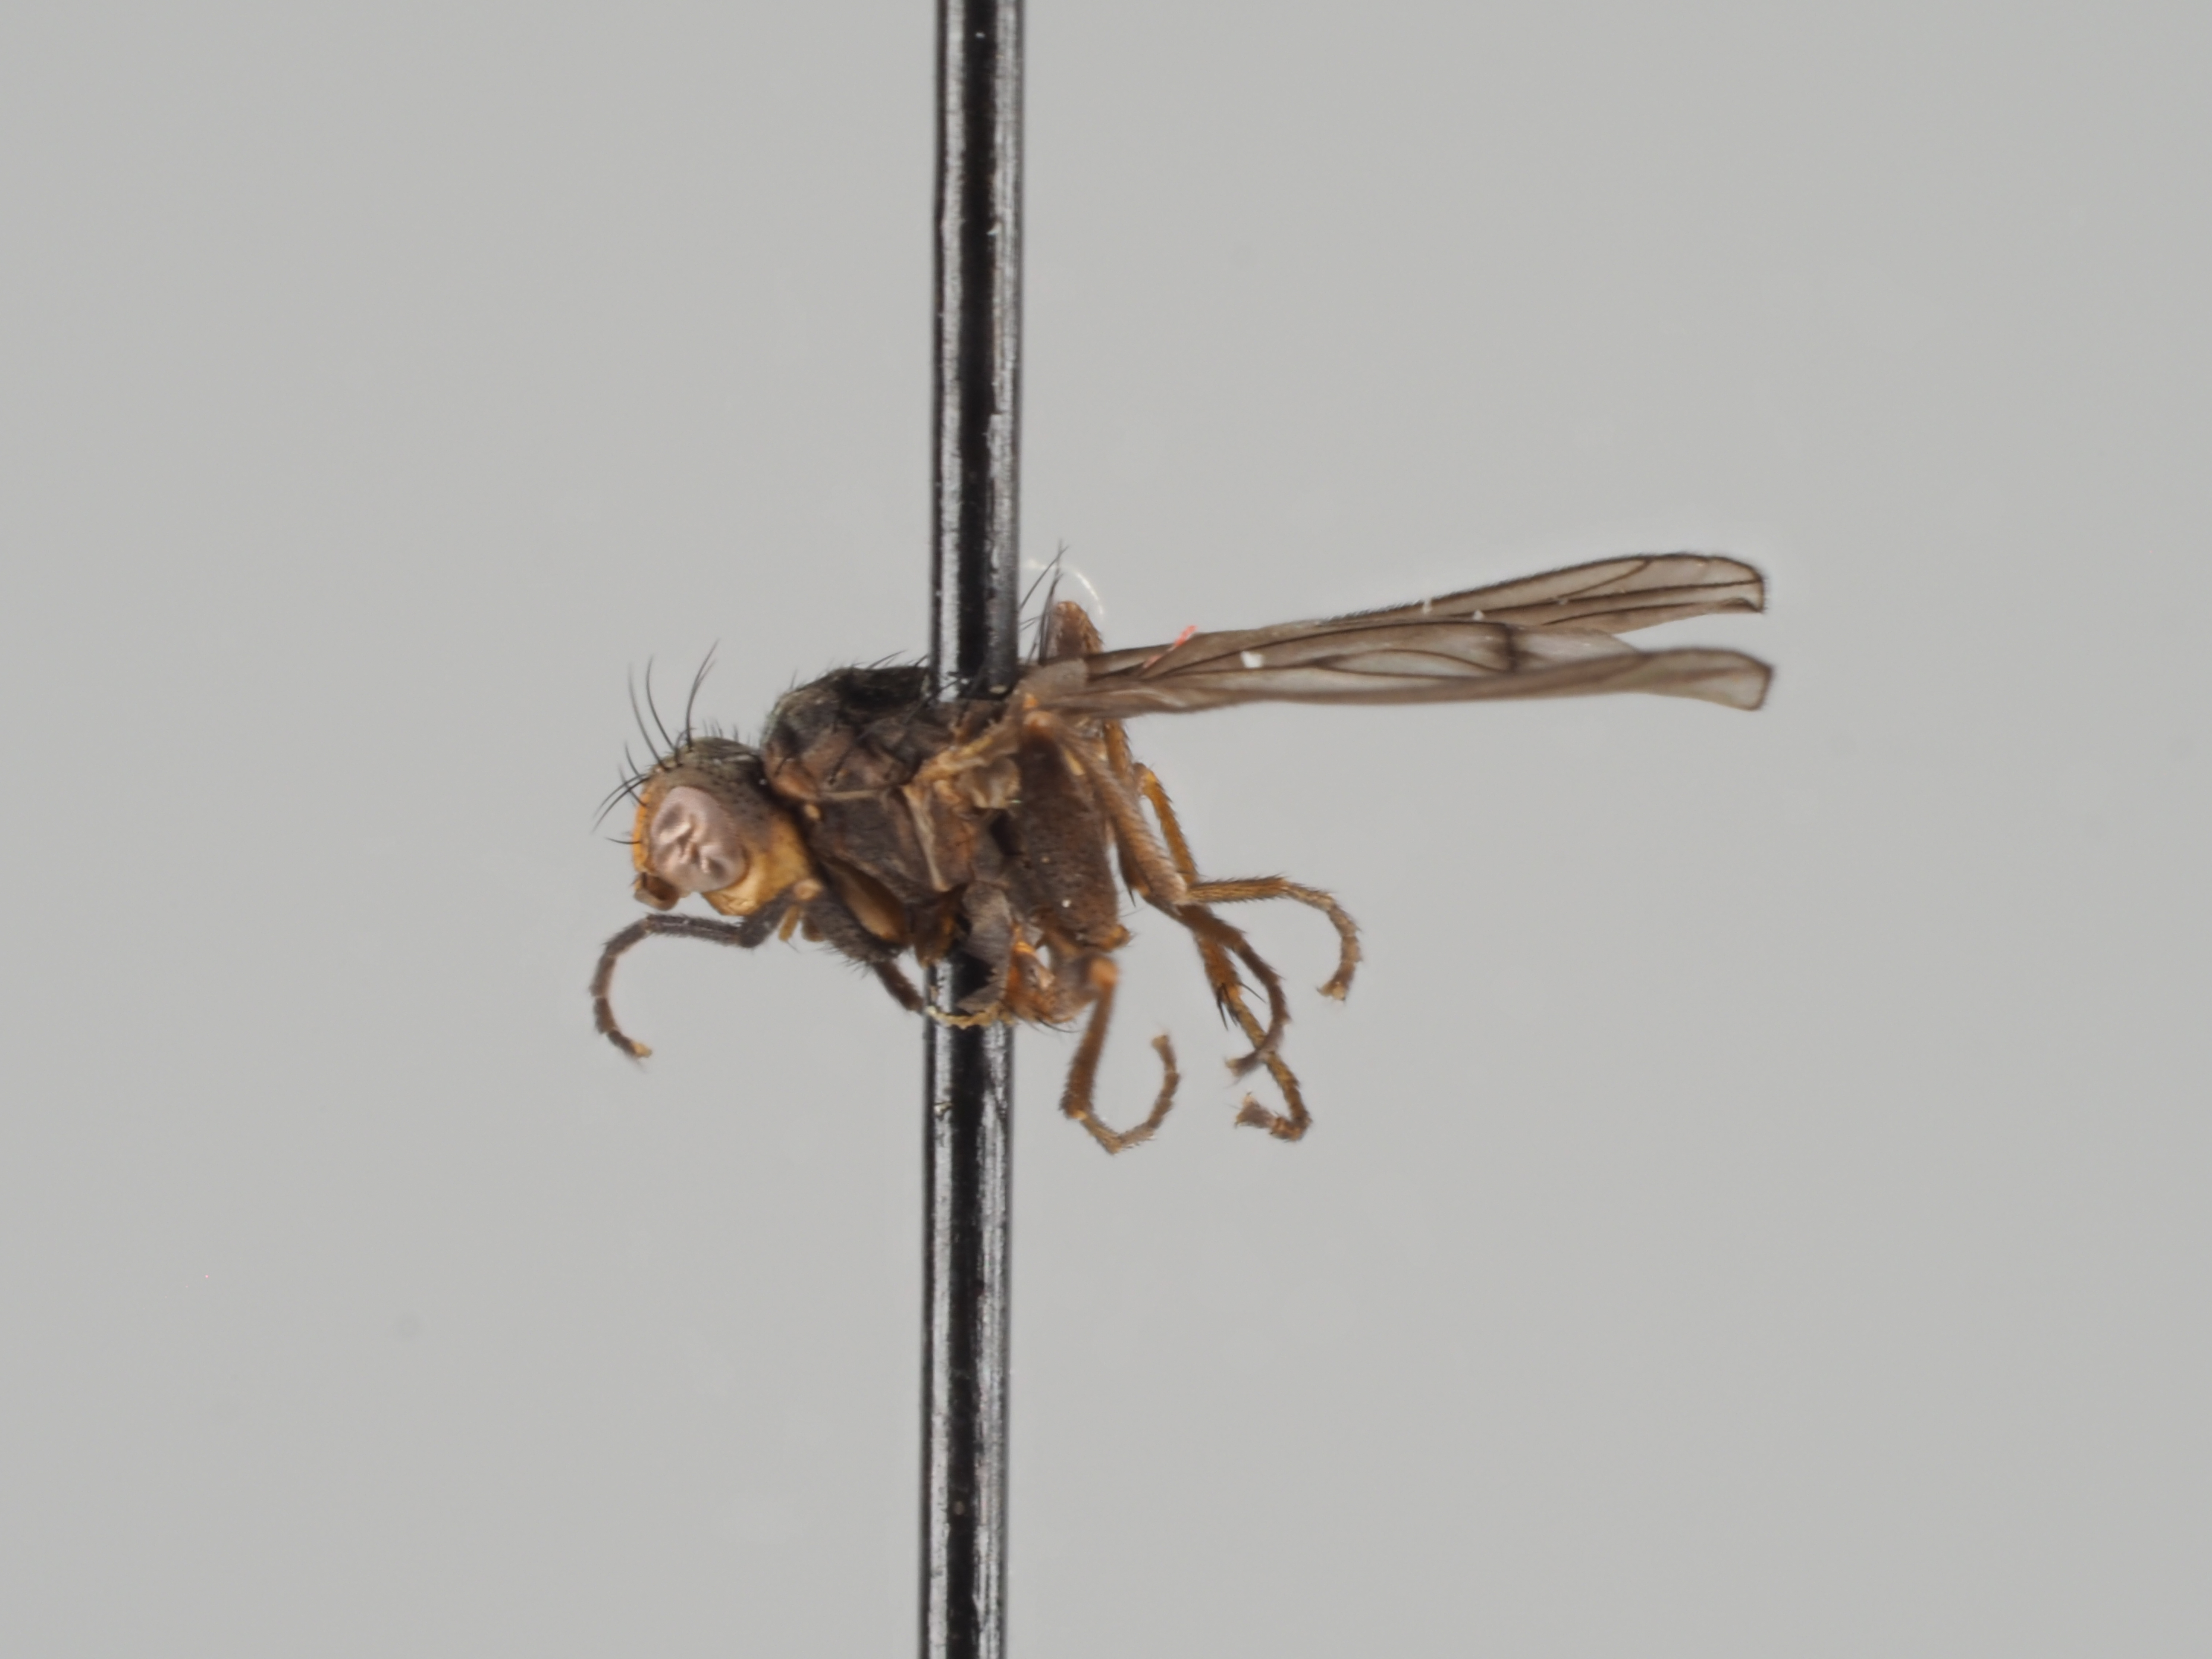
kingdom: Animalia
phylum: Arthropoda
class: Insecta
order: Diptera
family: Sciomyzidae
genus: Pherbellia
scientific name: Pherbellia alpina
